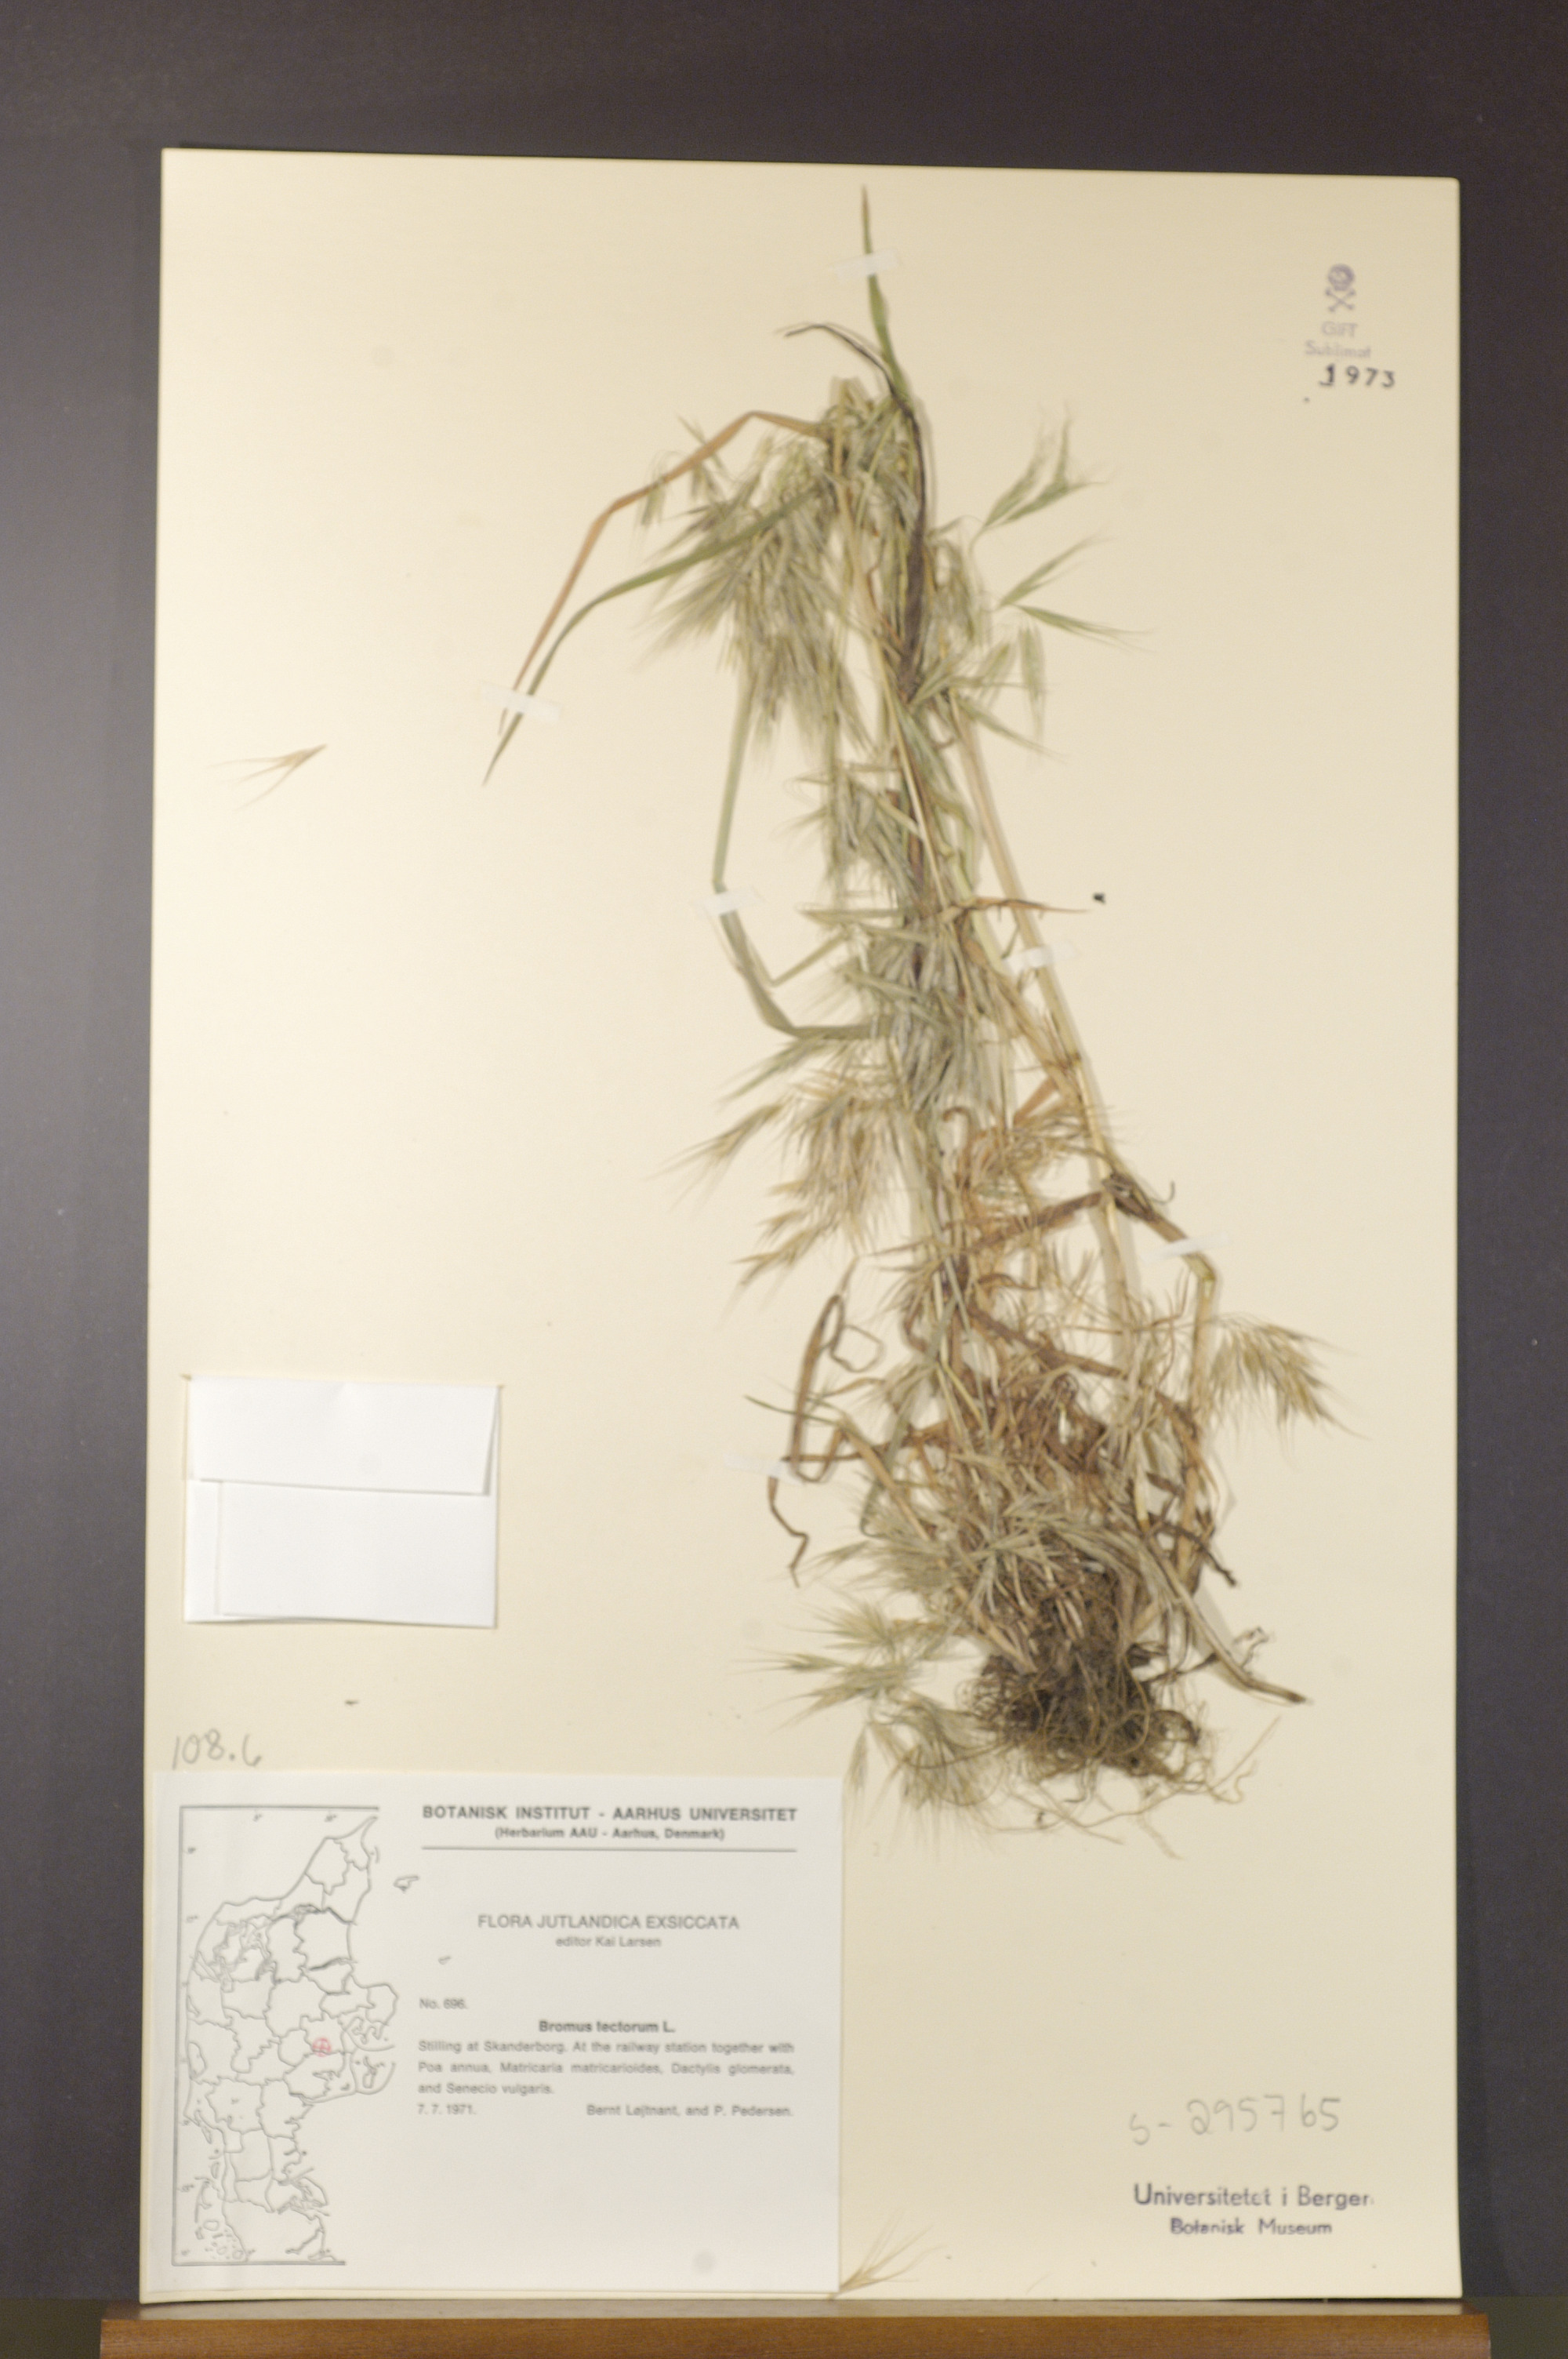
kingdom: Plantae
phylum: Tracheophyta
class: Liliopsida
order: Poales
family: Poaceae
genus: Bromus
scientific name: Bromus tectorum
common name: Cheatgrass
